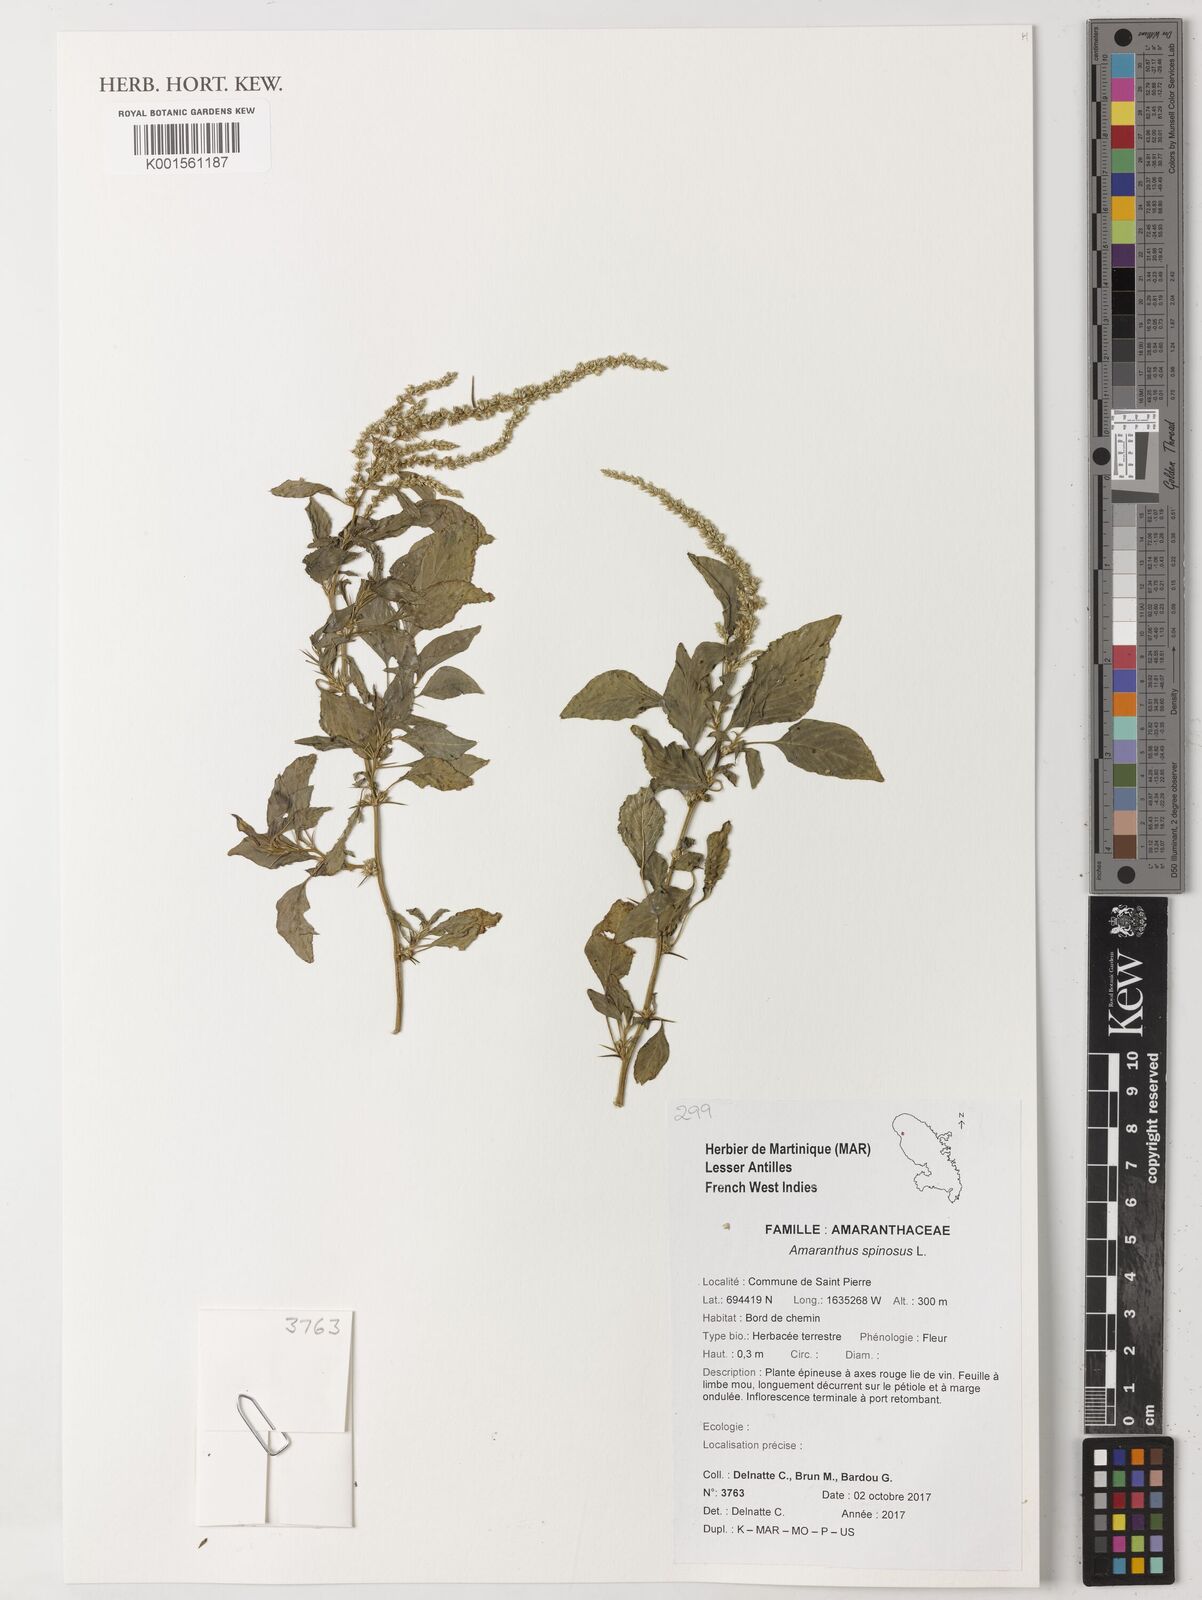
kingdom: Plantae
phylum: Tracheophyta
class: Magnoliopsida
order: Caryophyllales
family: Amaranthaceae
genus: Amaranthus
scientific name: Amaranthus spinosus
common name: Spiny amaranth
